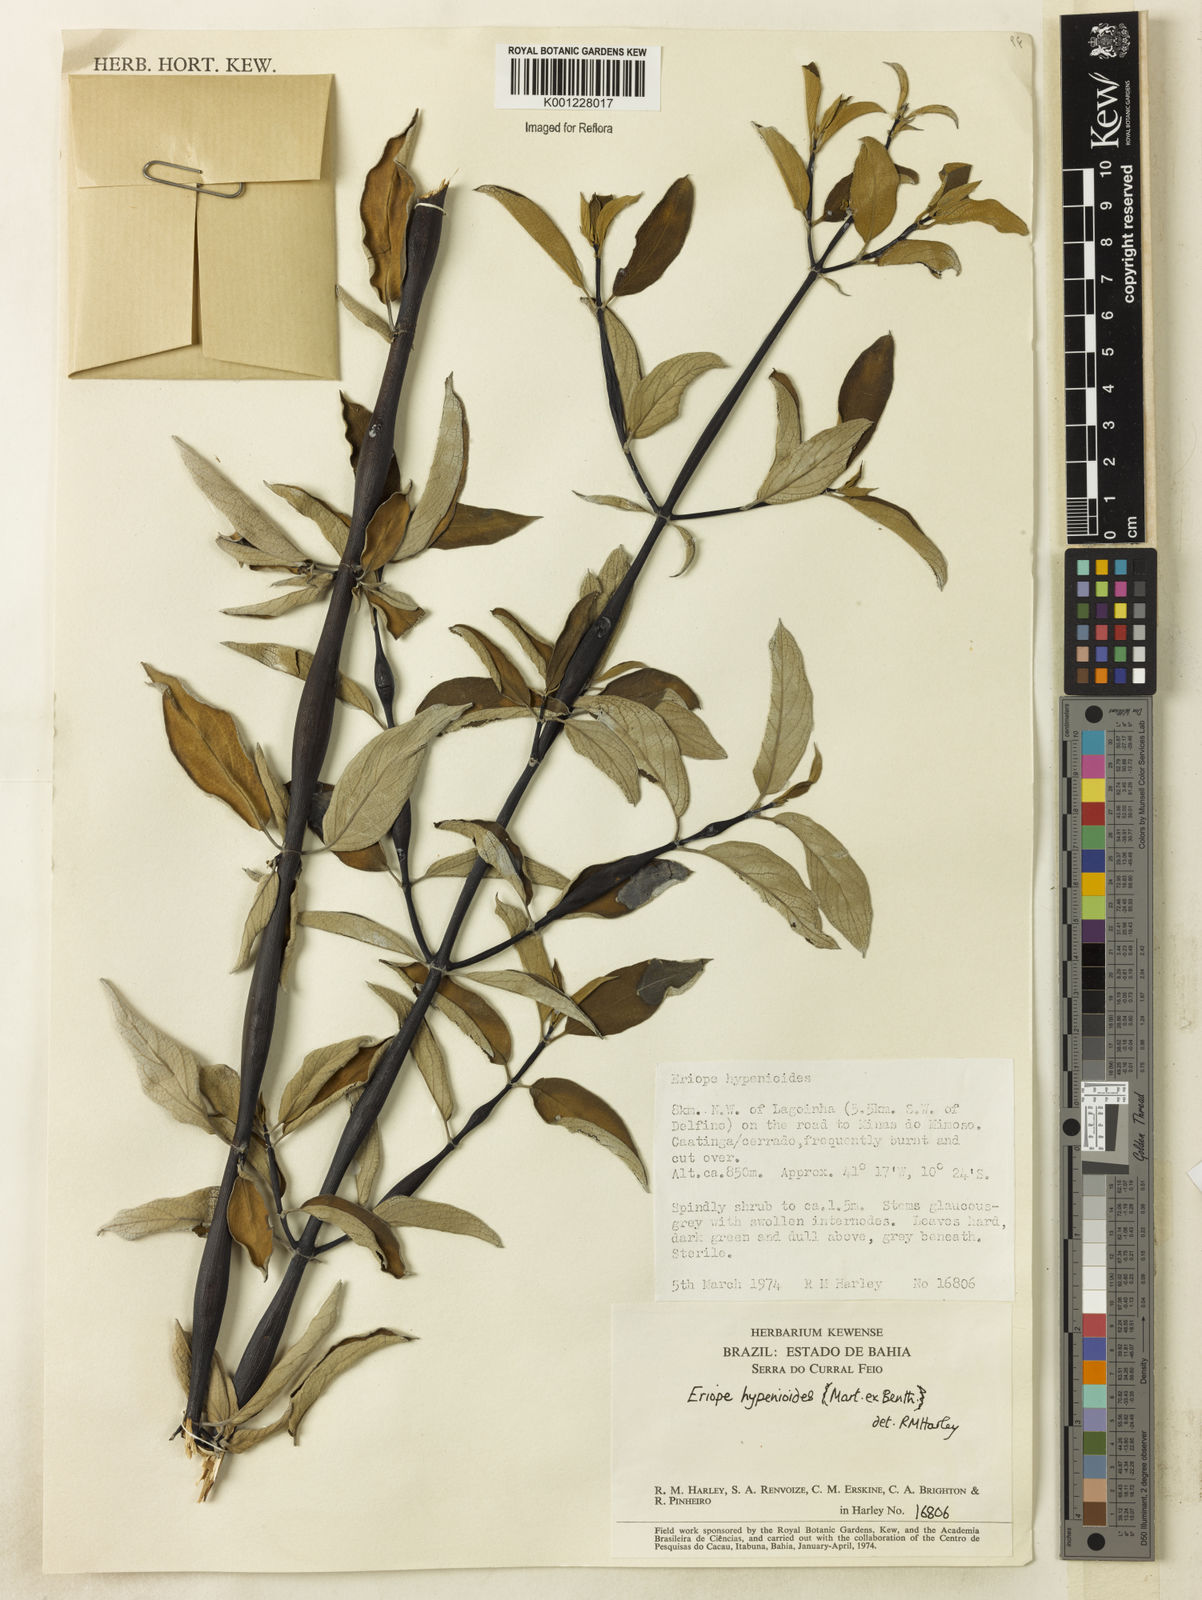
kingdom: Plantae
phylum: Tracheophyta
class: Magnoliopsida
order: Lamiales
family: Lamiaceae
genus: Eriope
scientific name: Eriope hypenioides
